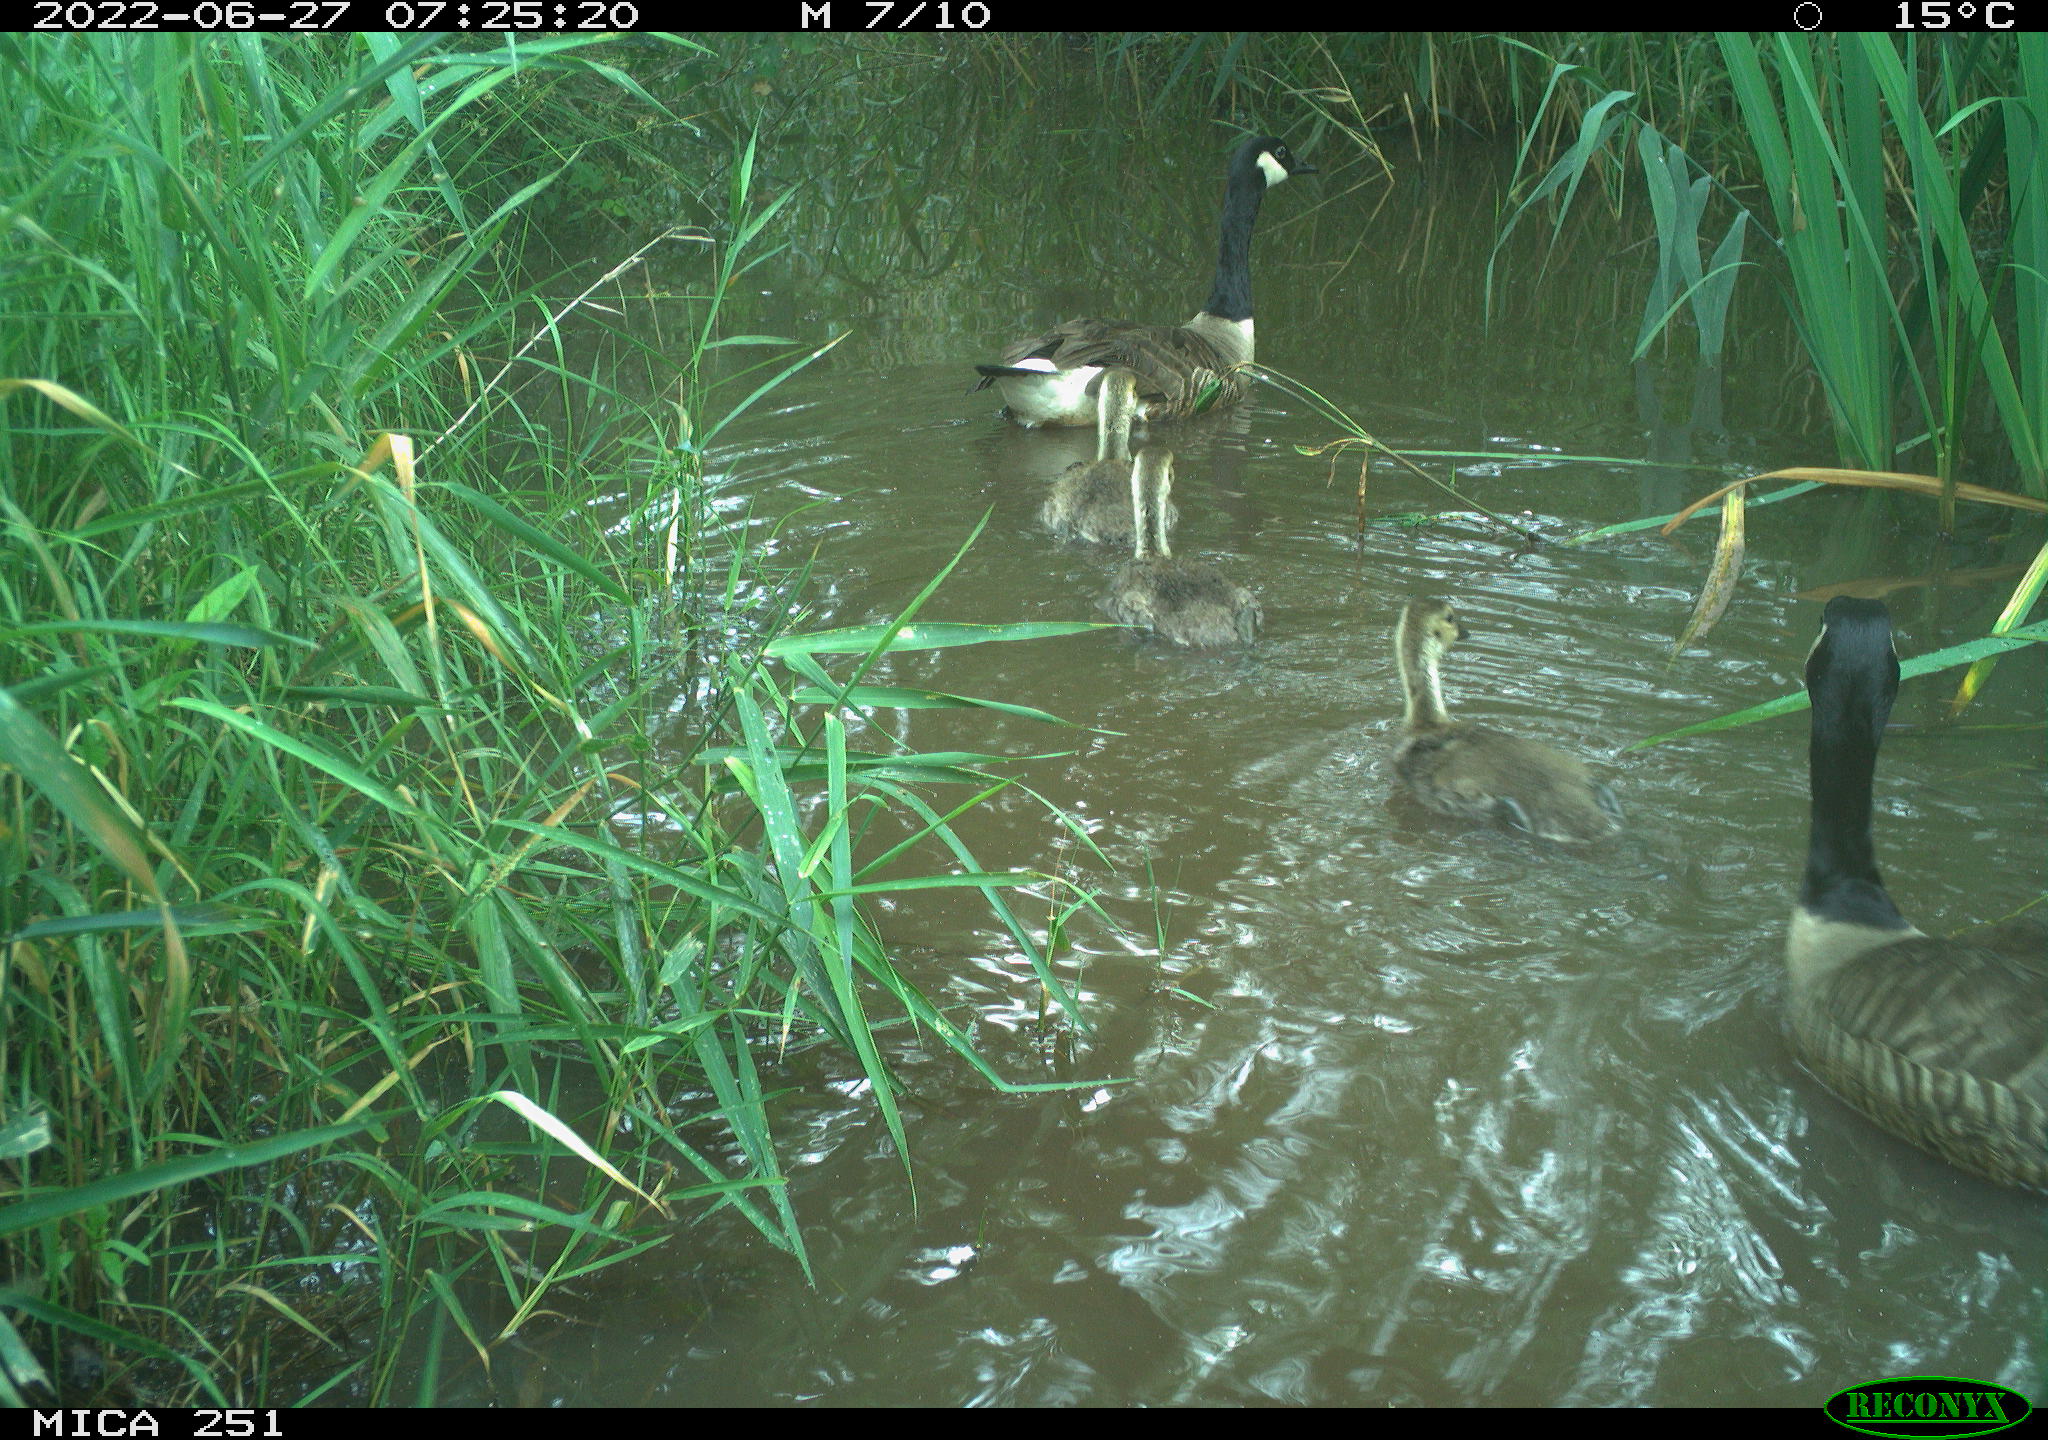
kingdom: Animalia
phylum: Chordata
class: Aves
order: Anseriformes
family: Anatidae
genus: Branta
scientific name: Branta canadensis
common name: Canada goose
